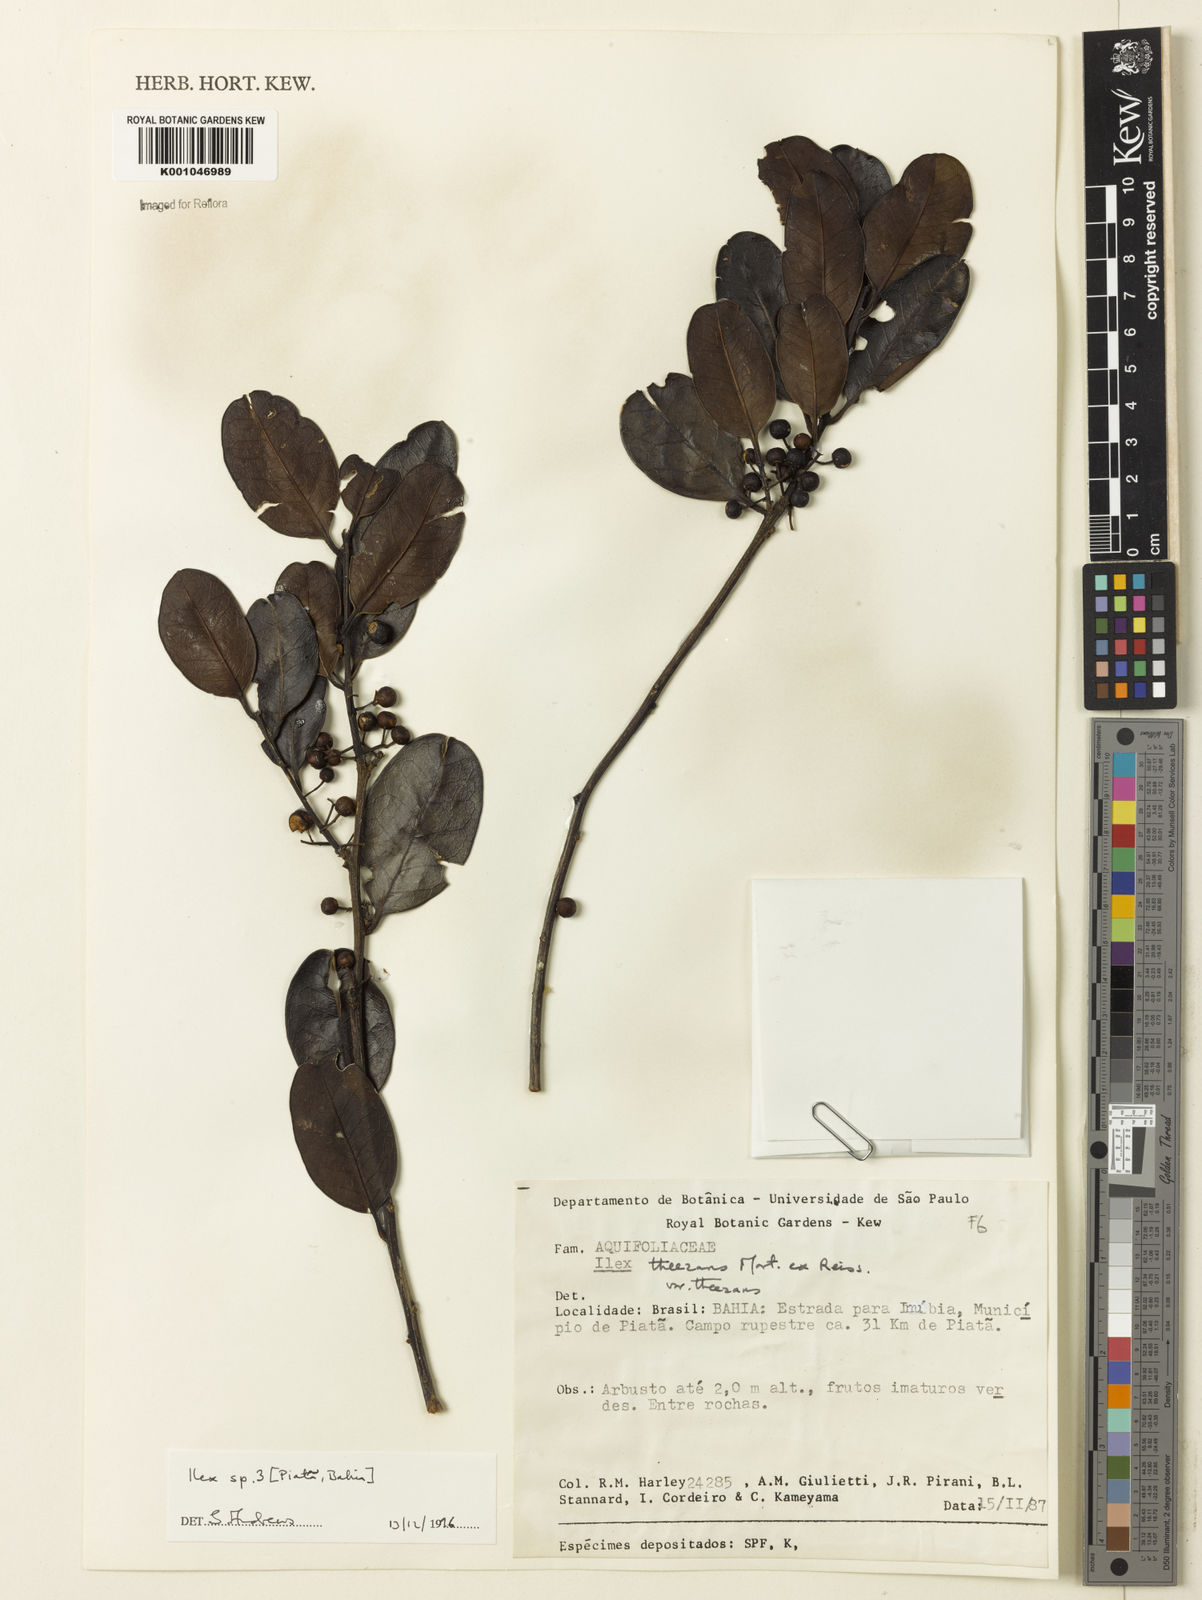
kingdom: Plantae
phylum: Tracheophyta
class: Magnoliopsida
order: Aquifoliales
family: Aquifoliaceae
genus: Ilex
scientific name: Ilex
